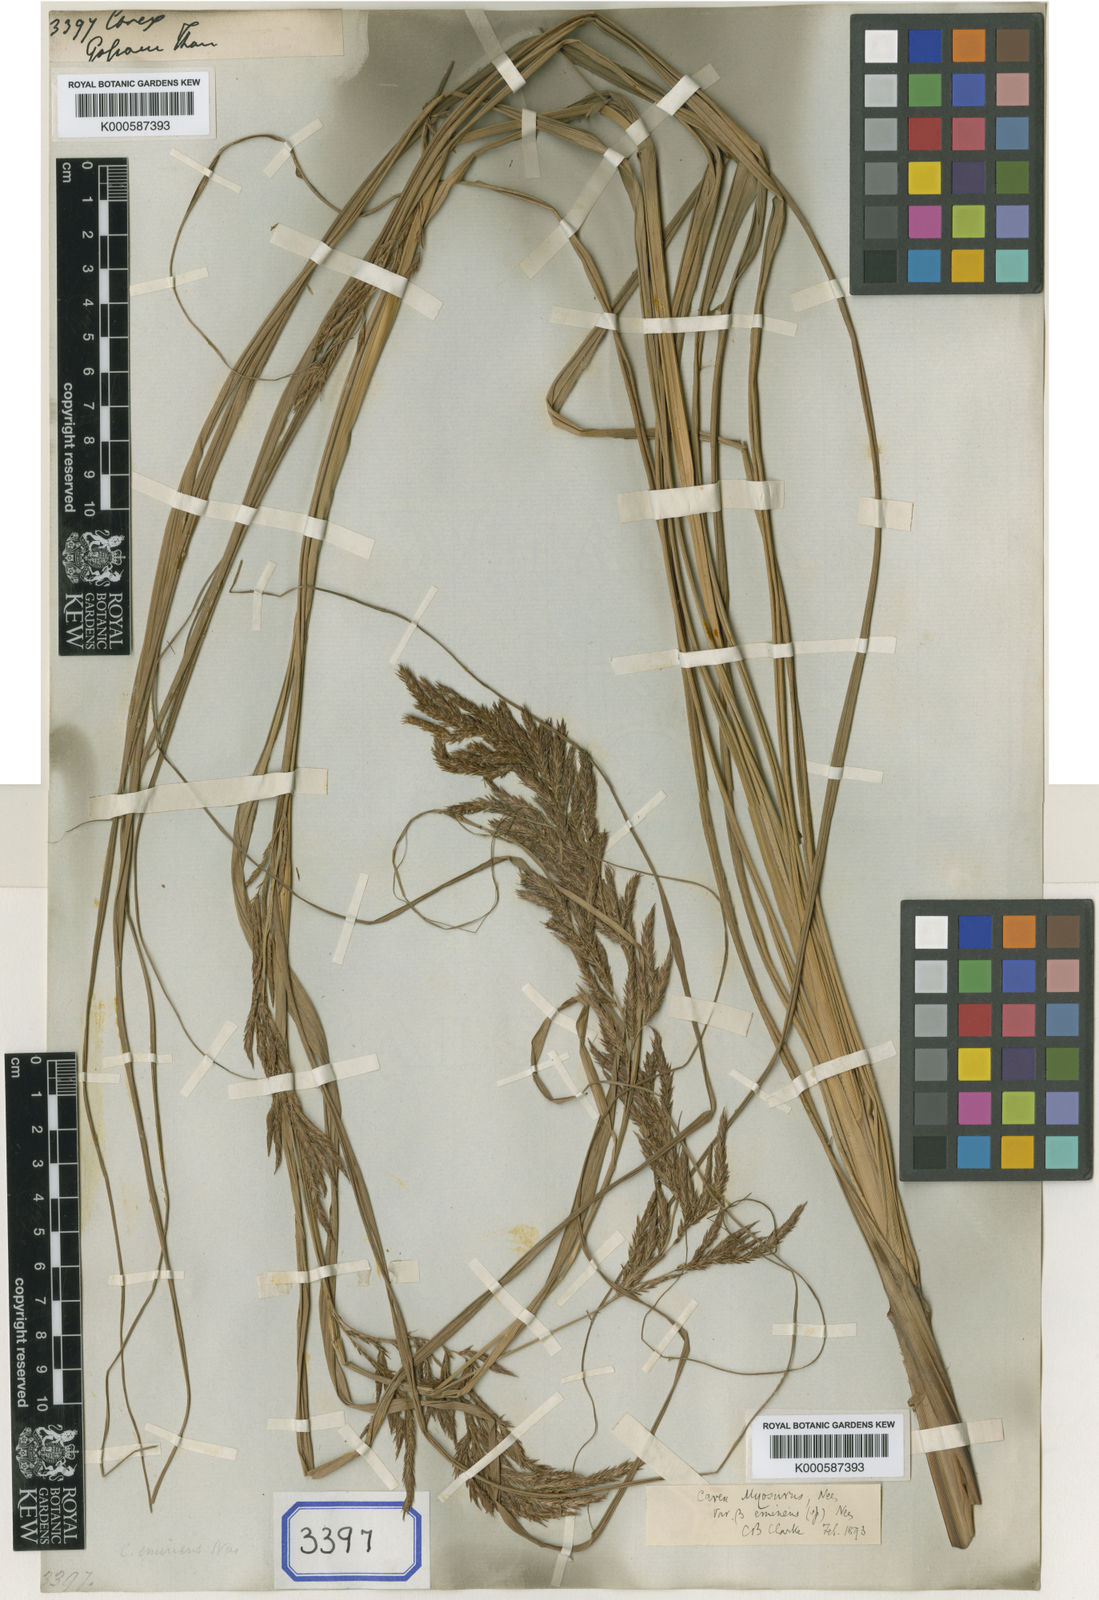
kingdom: Plantae
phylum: Tracheophyta
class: Liliopsida
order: Poales
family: Cyperaceae
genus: Carex
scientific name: Carex
